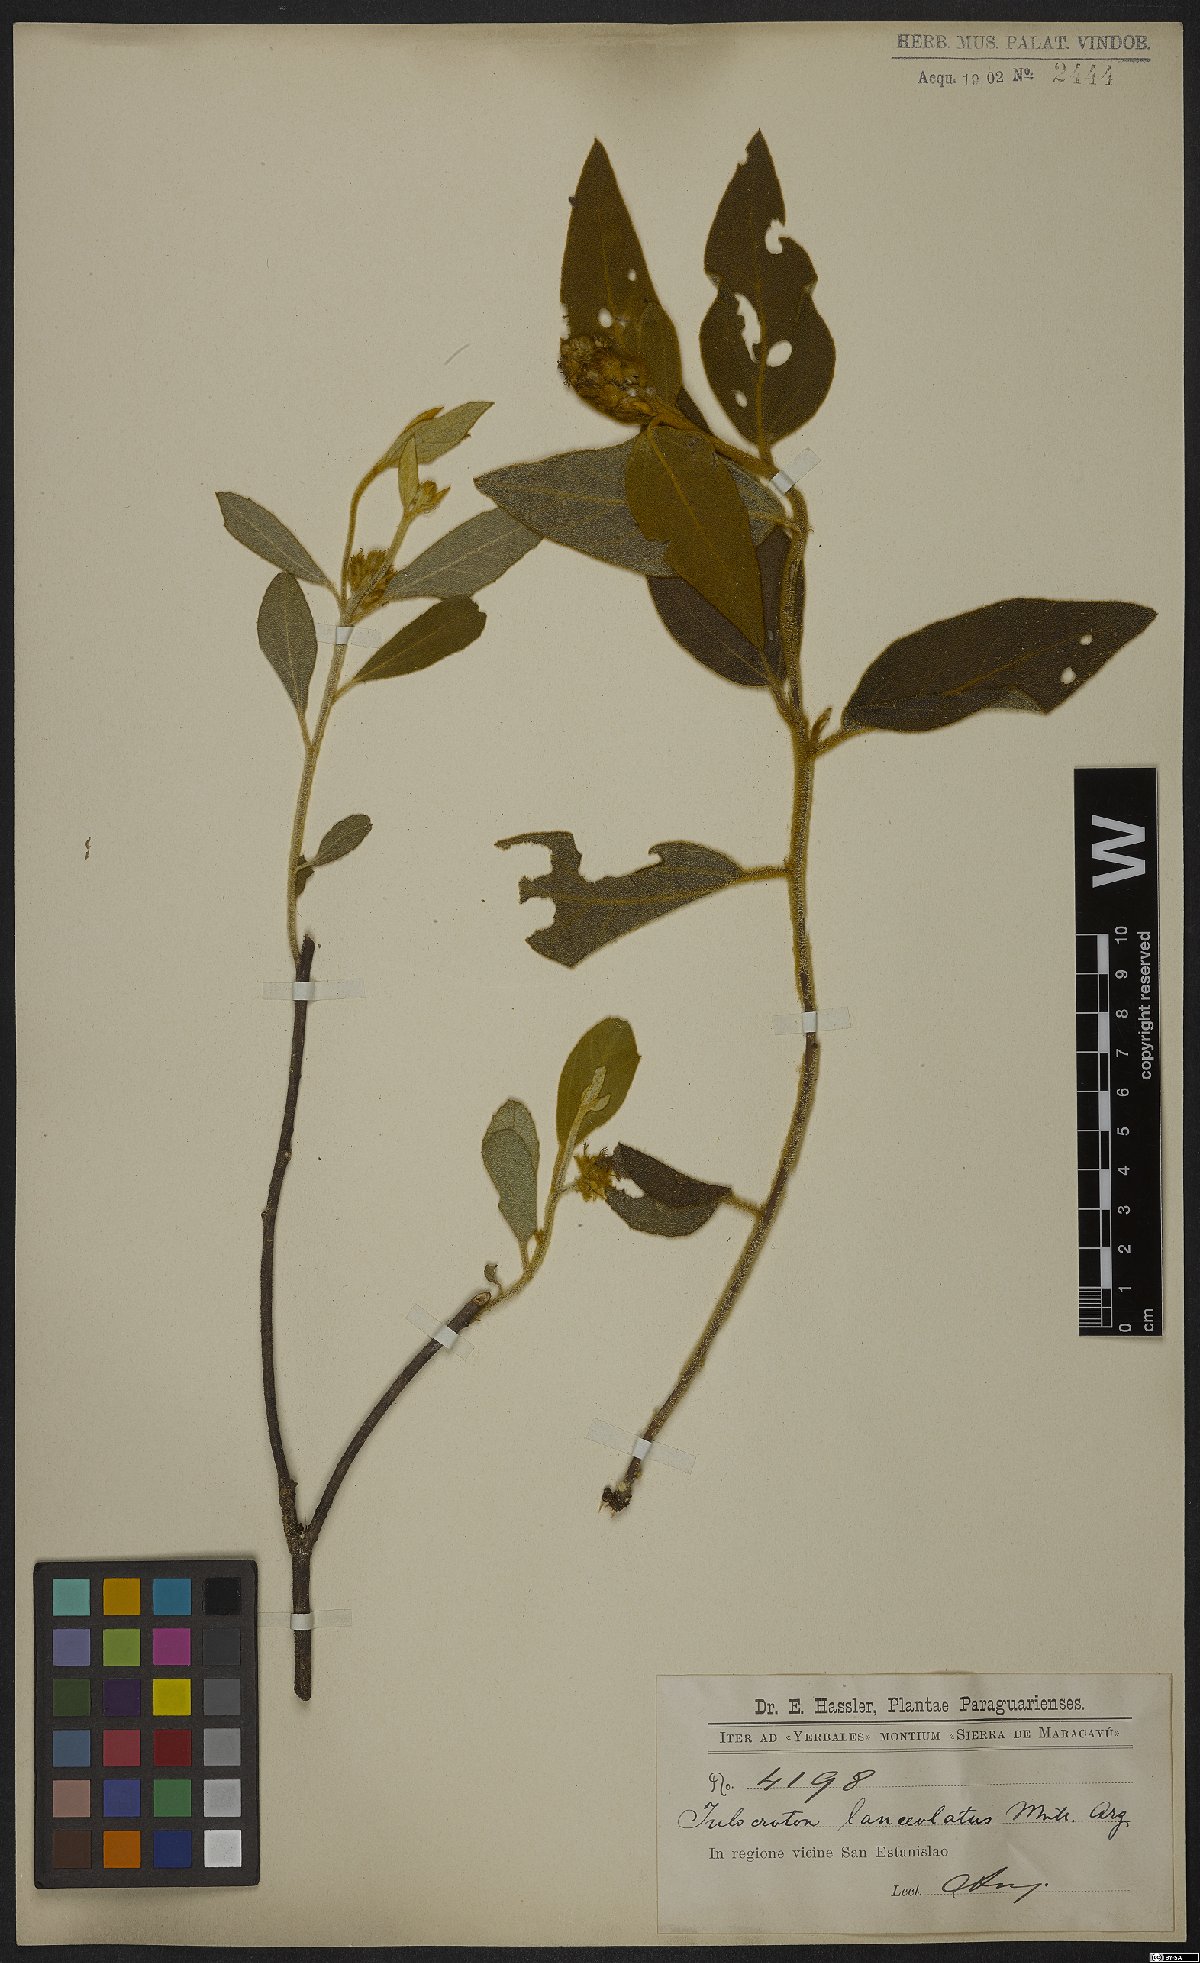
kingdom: Plantae
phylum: Tracheophyta
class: Magnoliopsida
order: Malpighiales
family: Euphorbiaceae
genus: Croton
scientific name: Croton solanaceus
